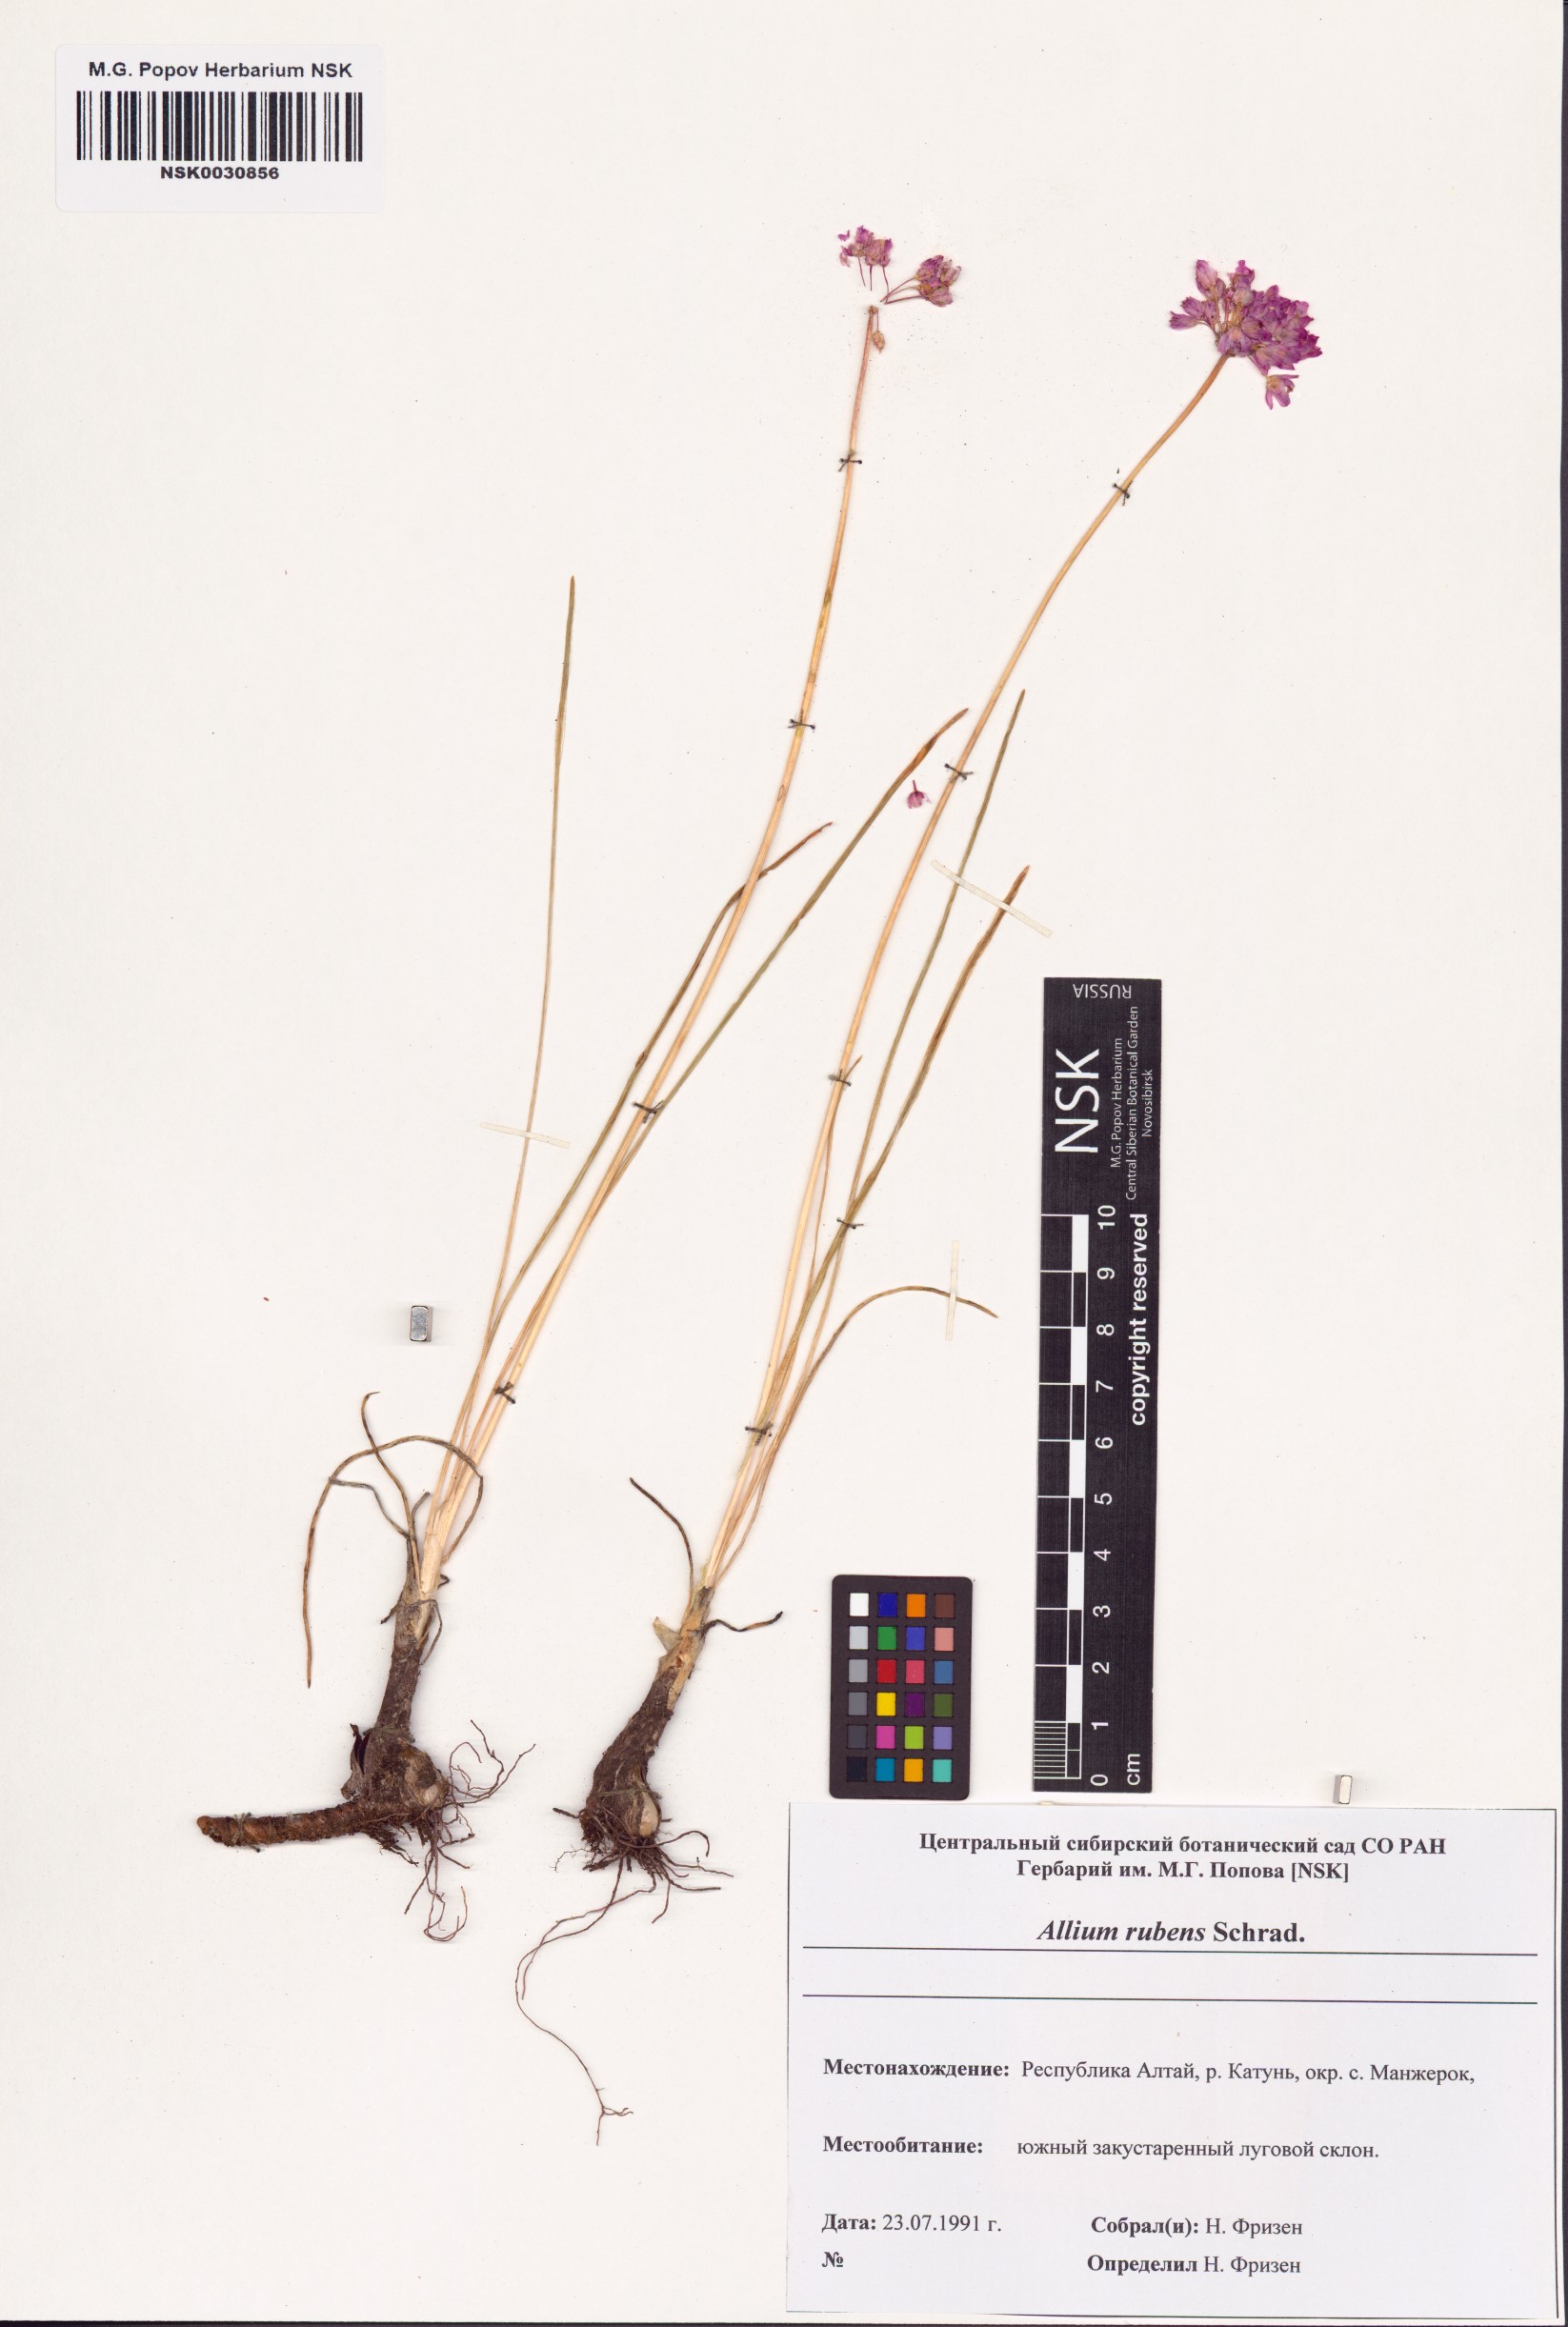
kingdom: Plantae
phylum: Tracheophyta
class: Liliopsida
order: Asparagales
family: Amaryllidaceae
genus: Allium
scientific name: Allium rubens
